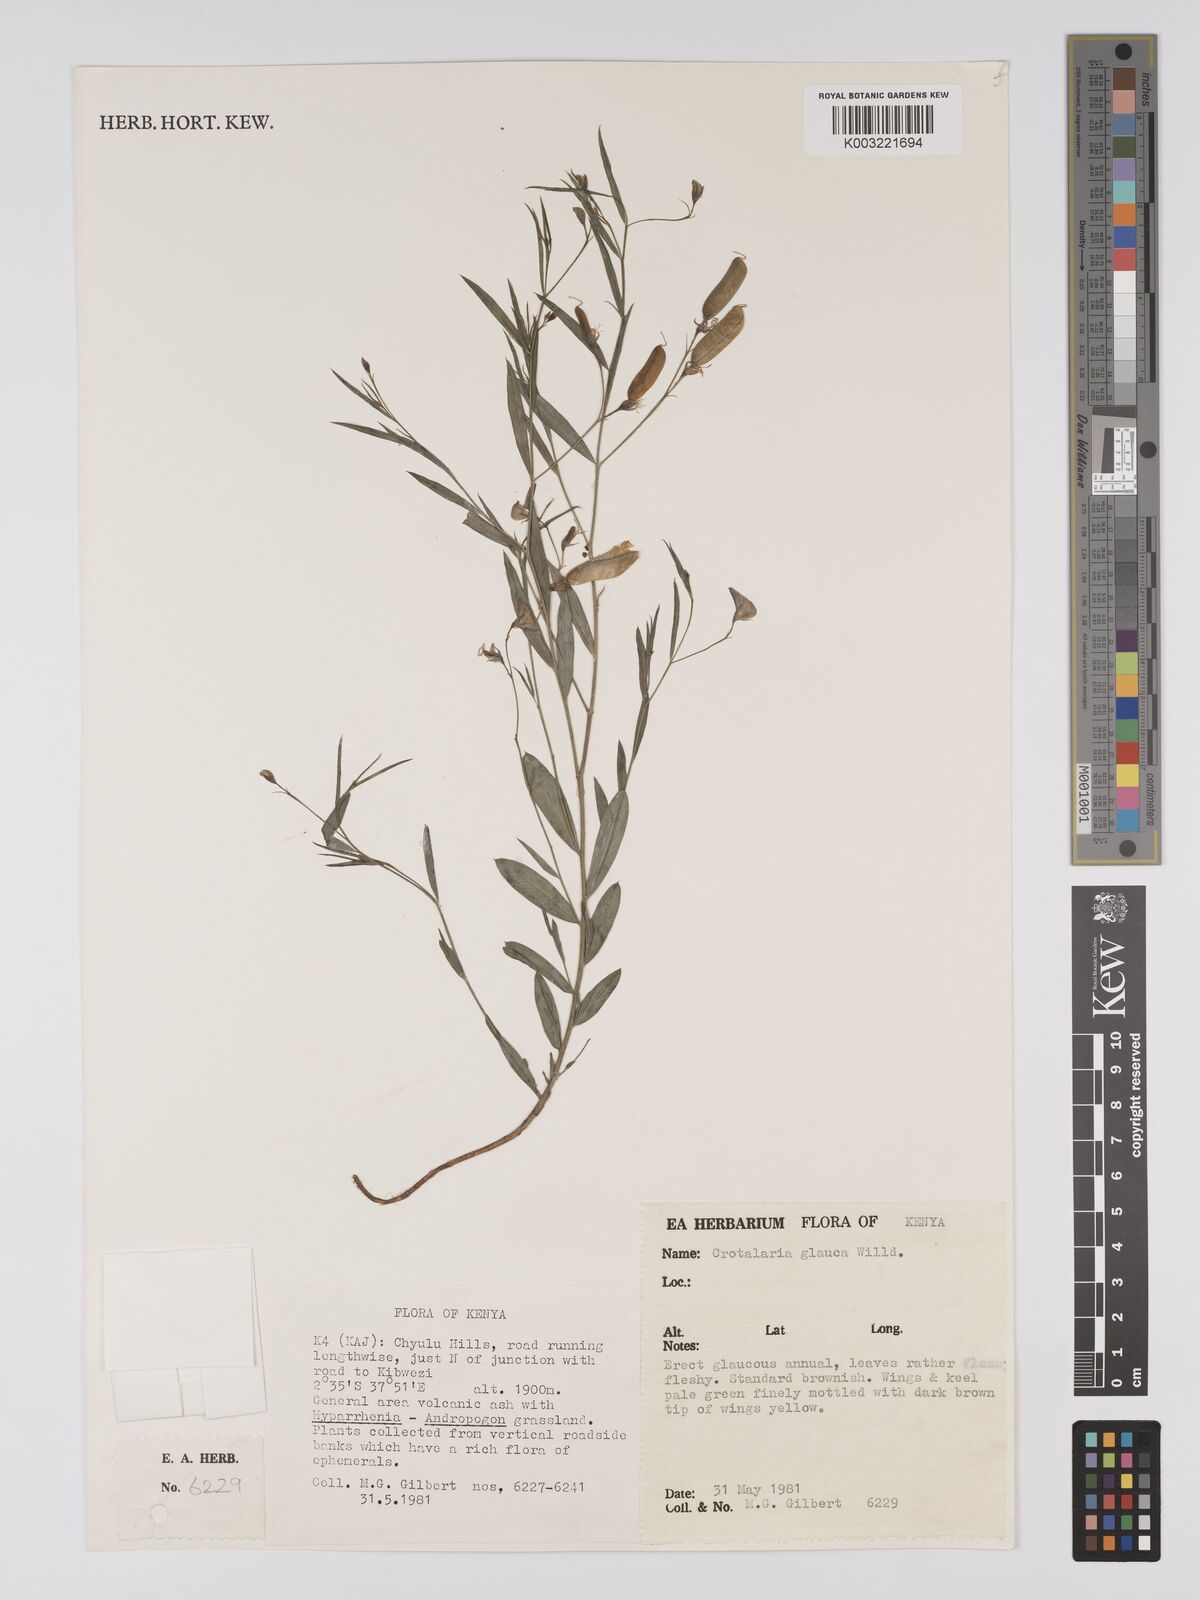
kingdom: Plantae
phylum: Tracheophyta
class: Magnoliopsida
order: Fabales
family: Fabaceae
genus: Crotalaria
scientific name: Crotalaria glauca
